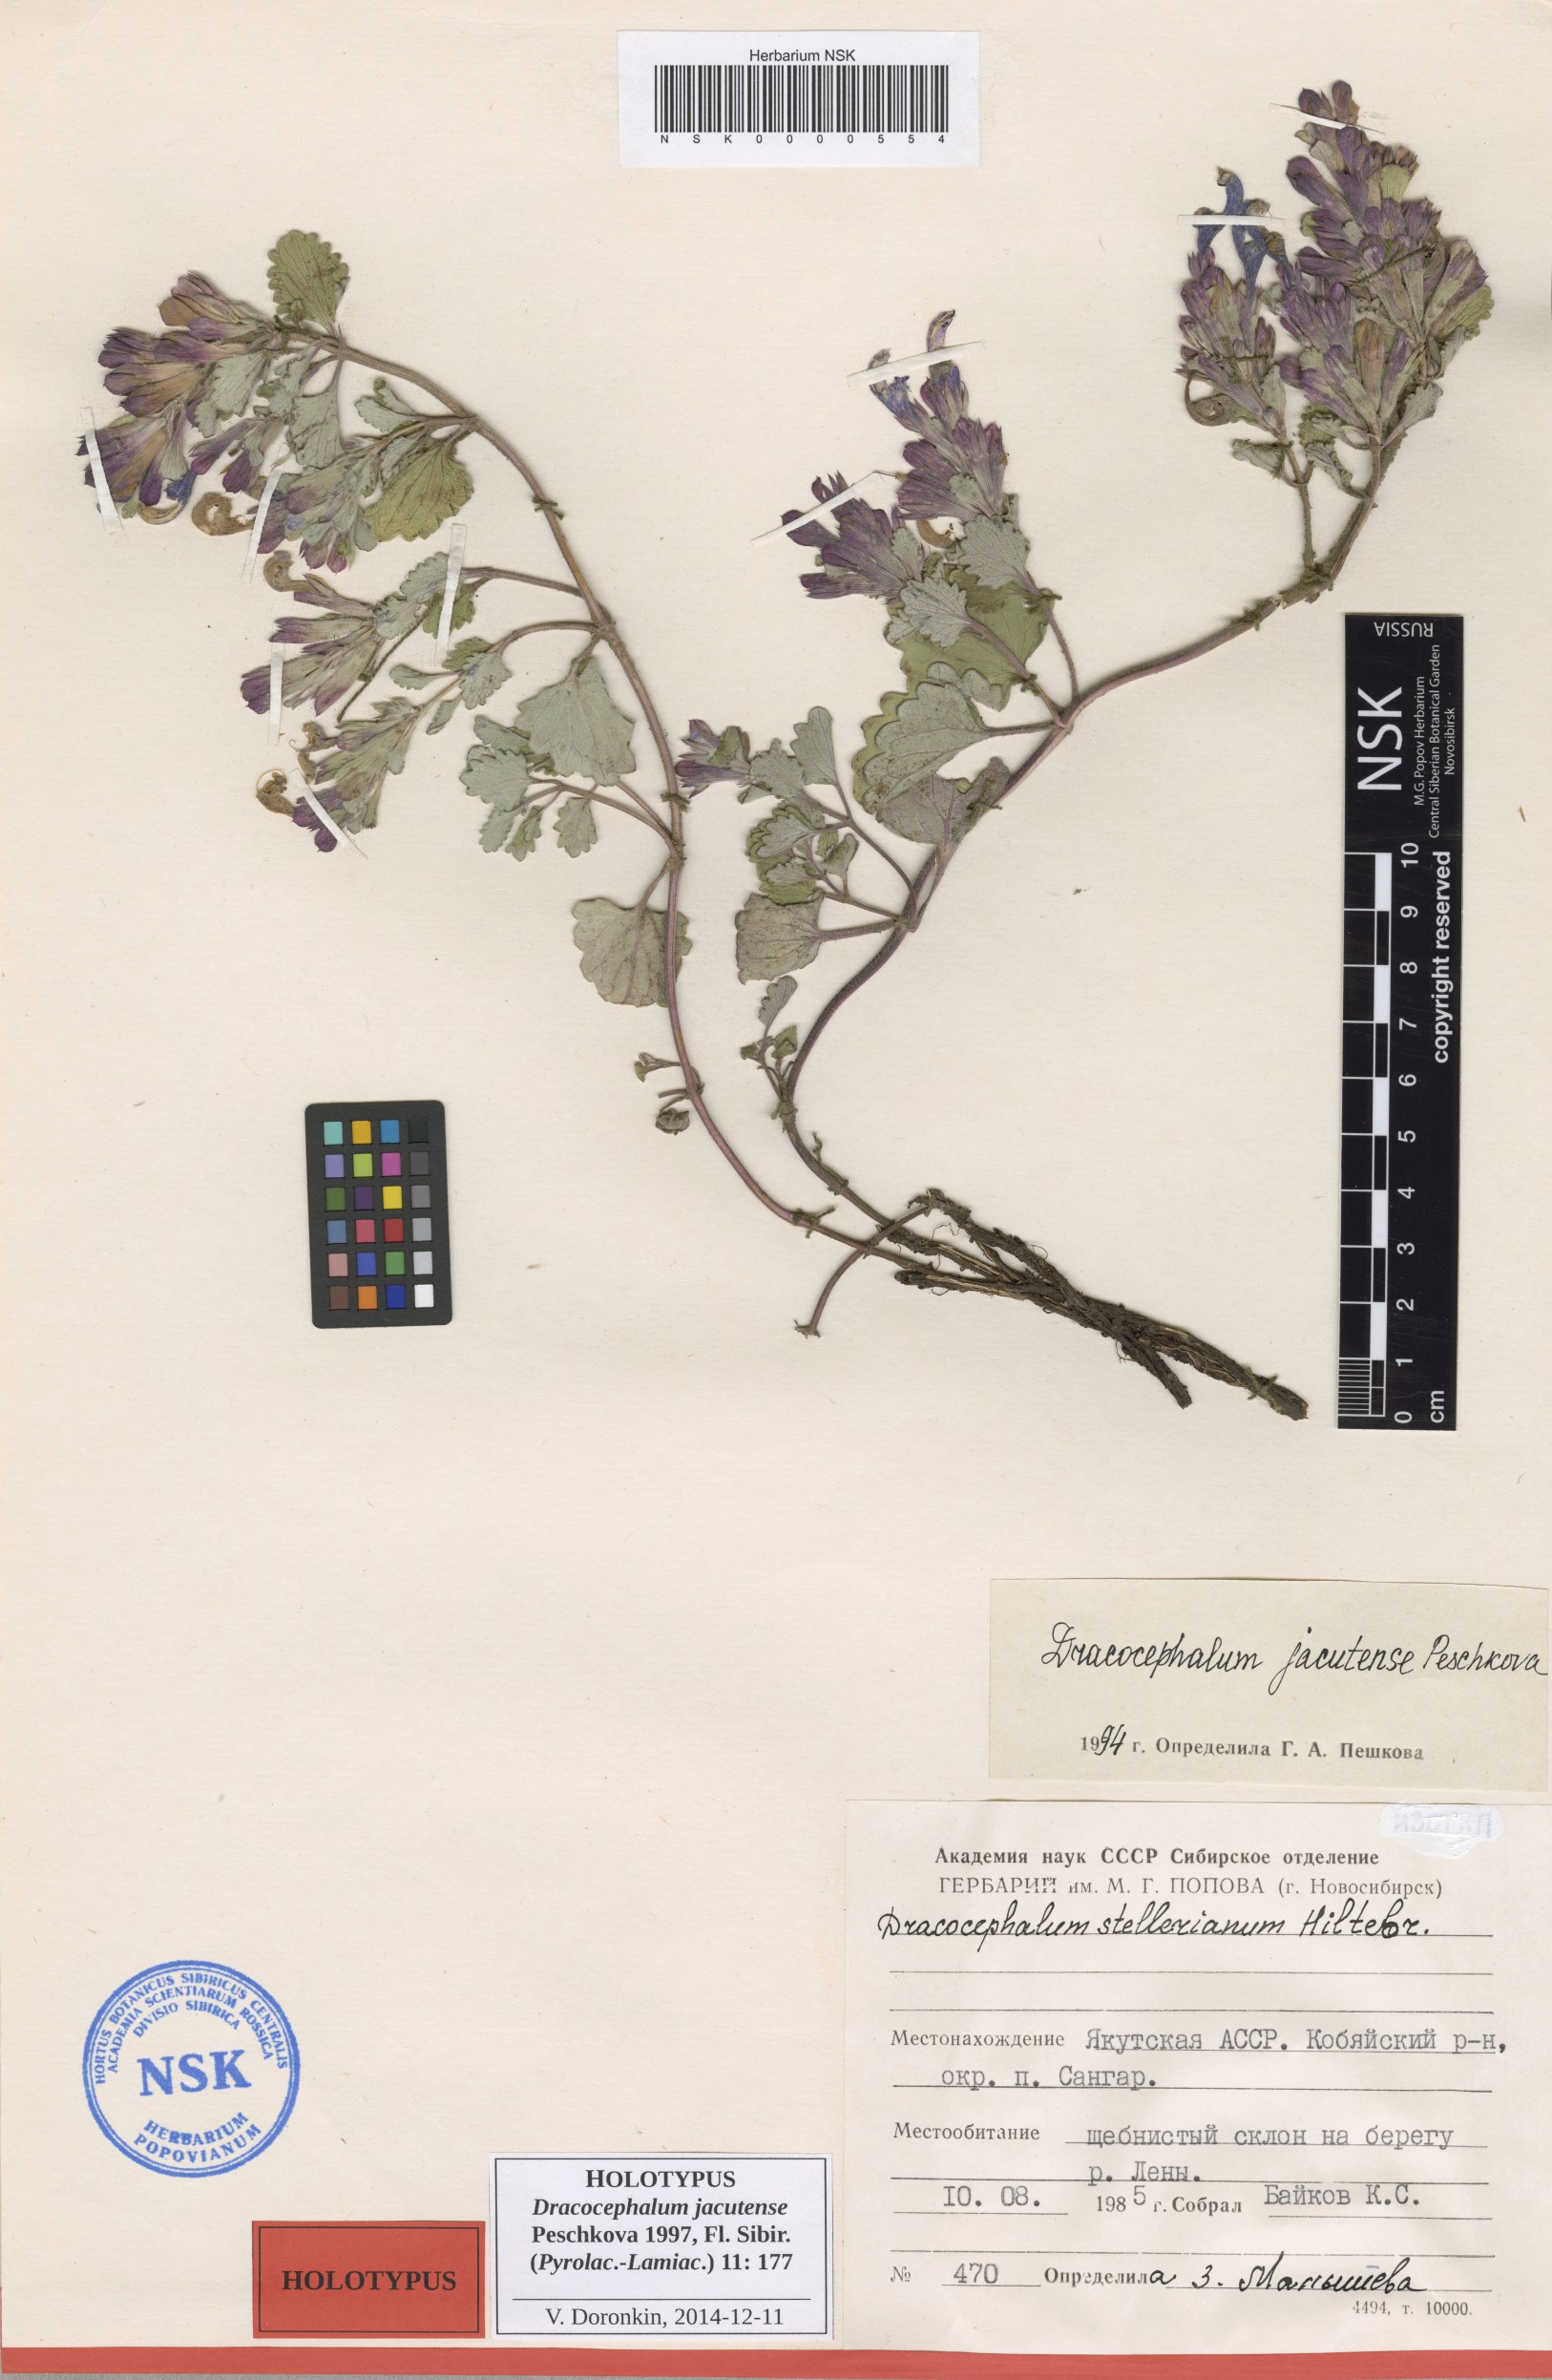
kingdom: Plantae
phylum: Tracheophyta
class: Magnoliopsida
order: Lamiales
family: Lamiaceae
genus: Dracocephalum
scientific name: Dracocephalum jacutense
